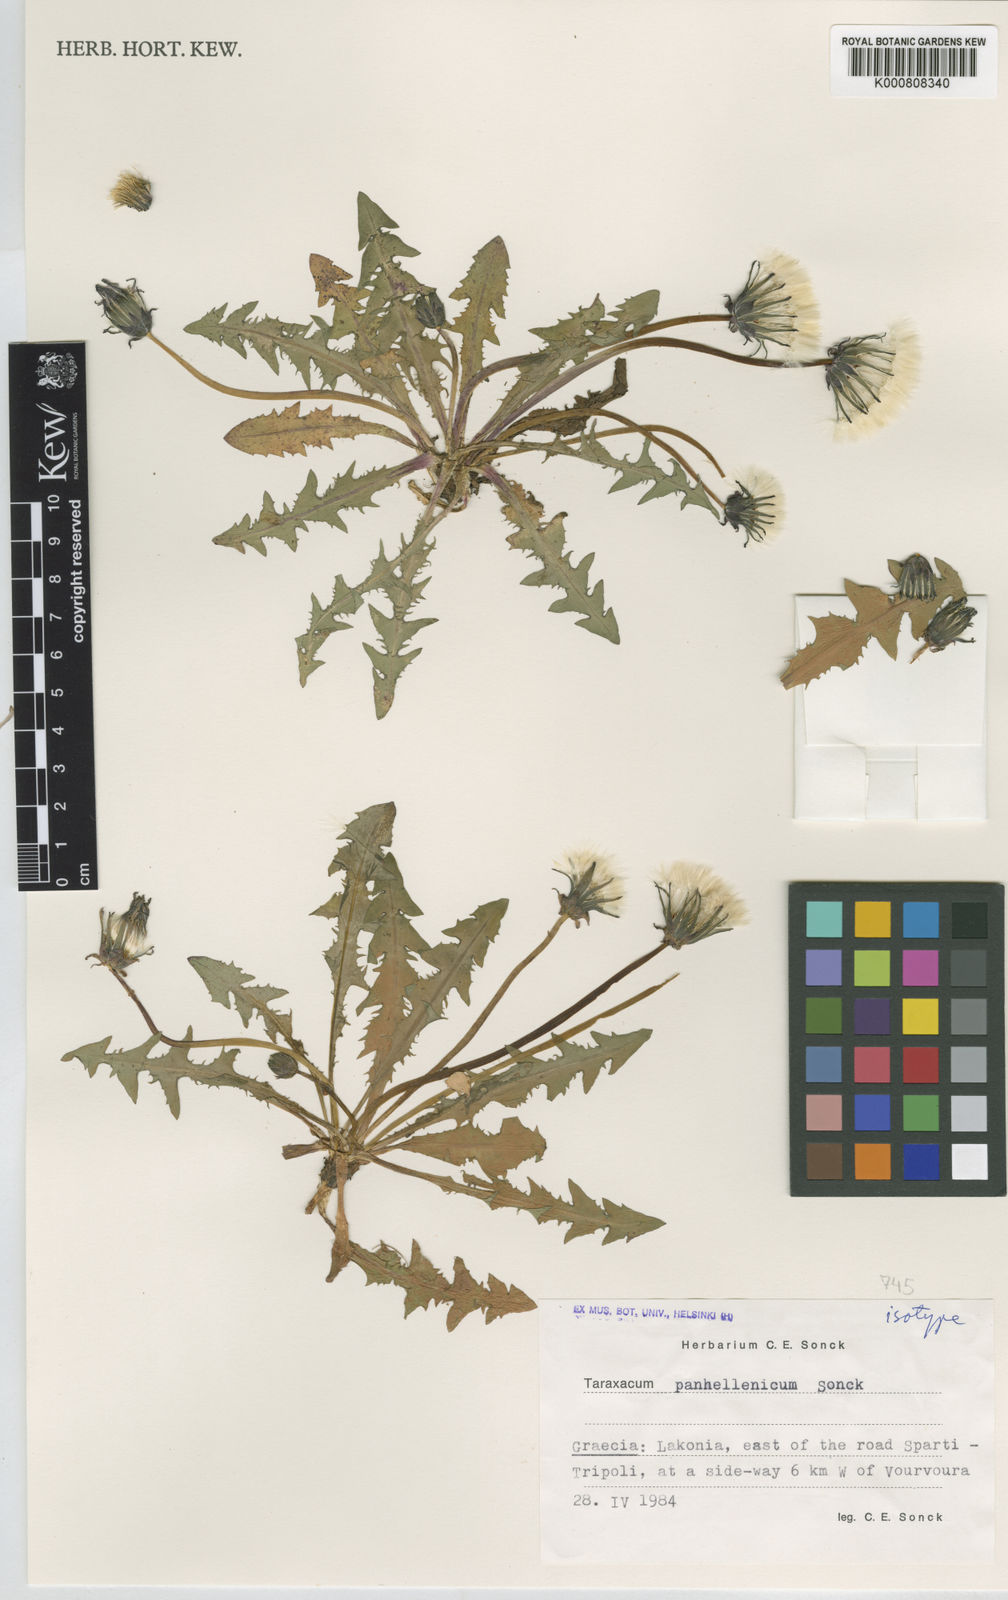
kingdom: Plantae
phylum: Tracheophyta
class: Magnoliopsida
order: Asterales
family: Asteraceae
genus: Taraxacum
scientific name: Taraxacum panhellenicum
